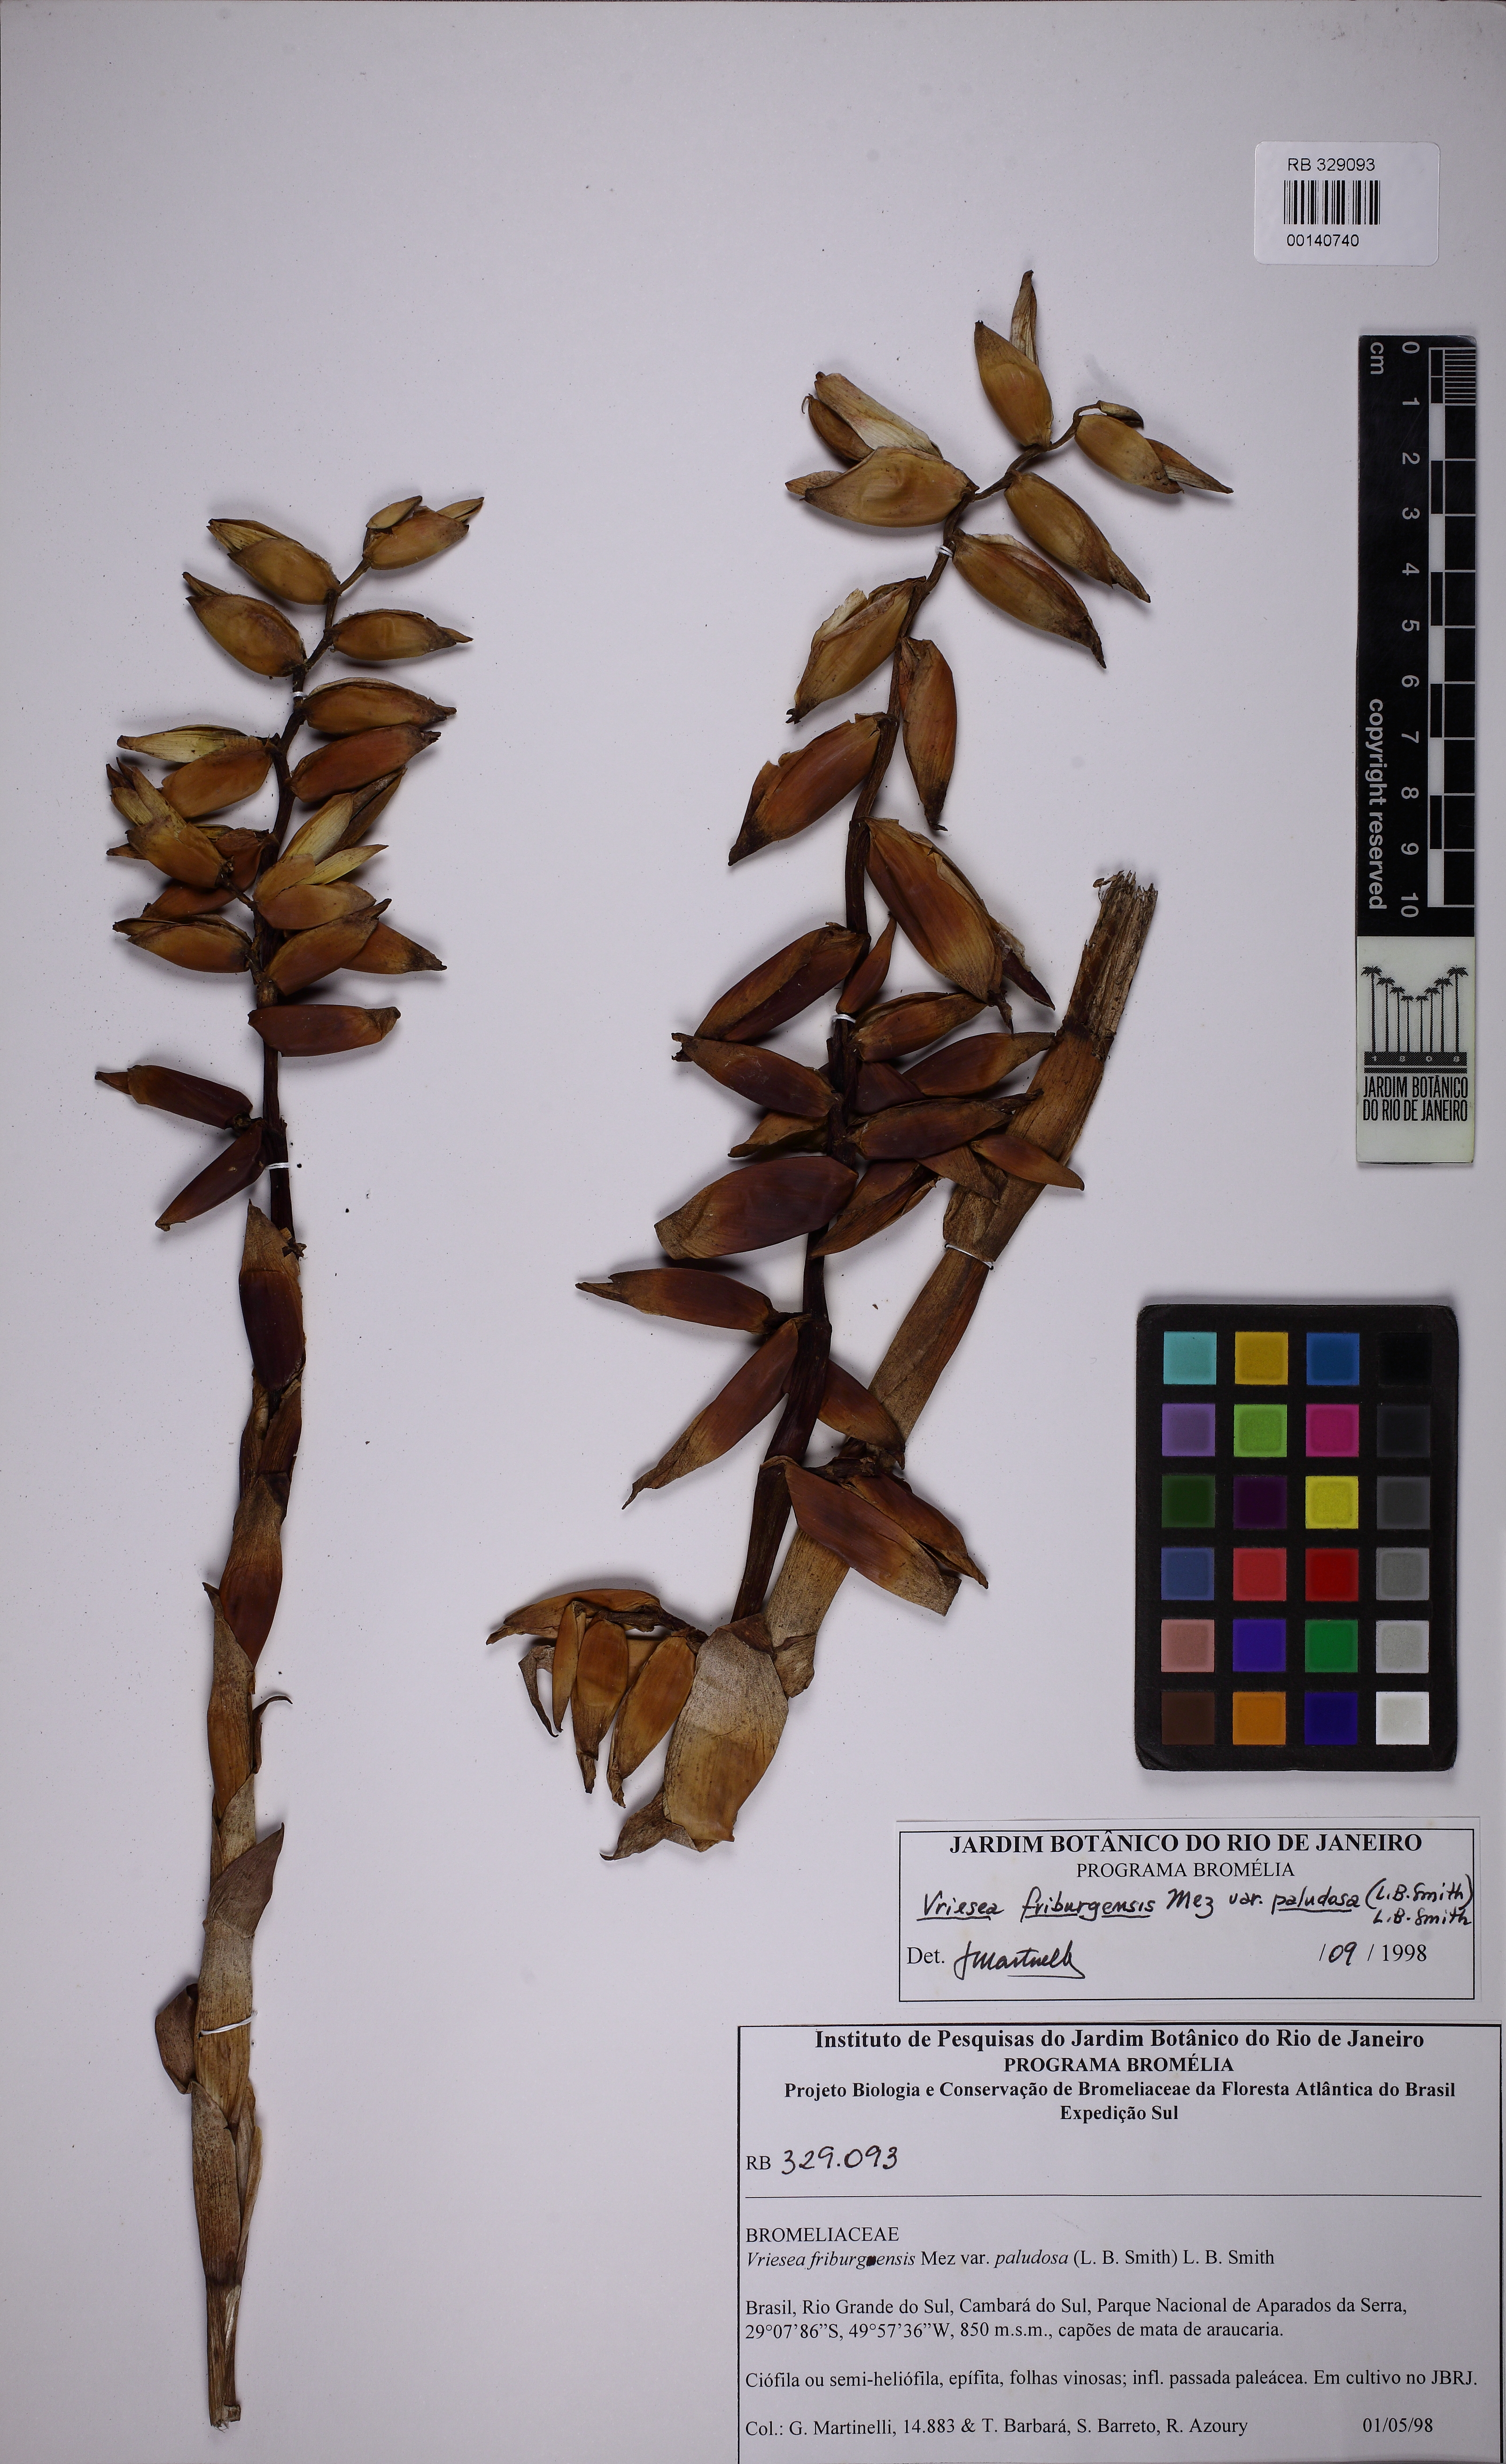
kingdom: Plantae
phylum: Tracheophyta
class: Liliopsida
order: Poales
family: Bromeliaceae
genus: Vriesea
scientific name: Vriesea friburgensis
